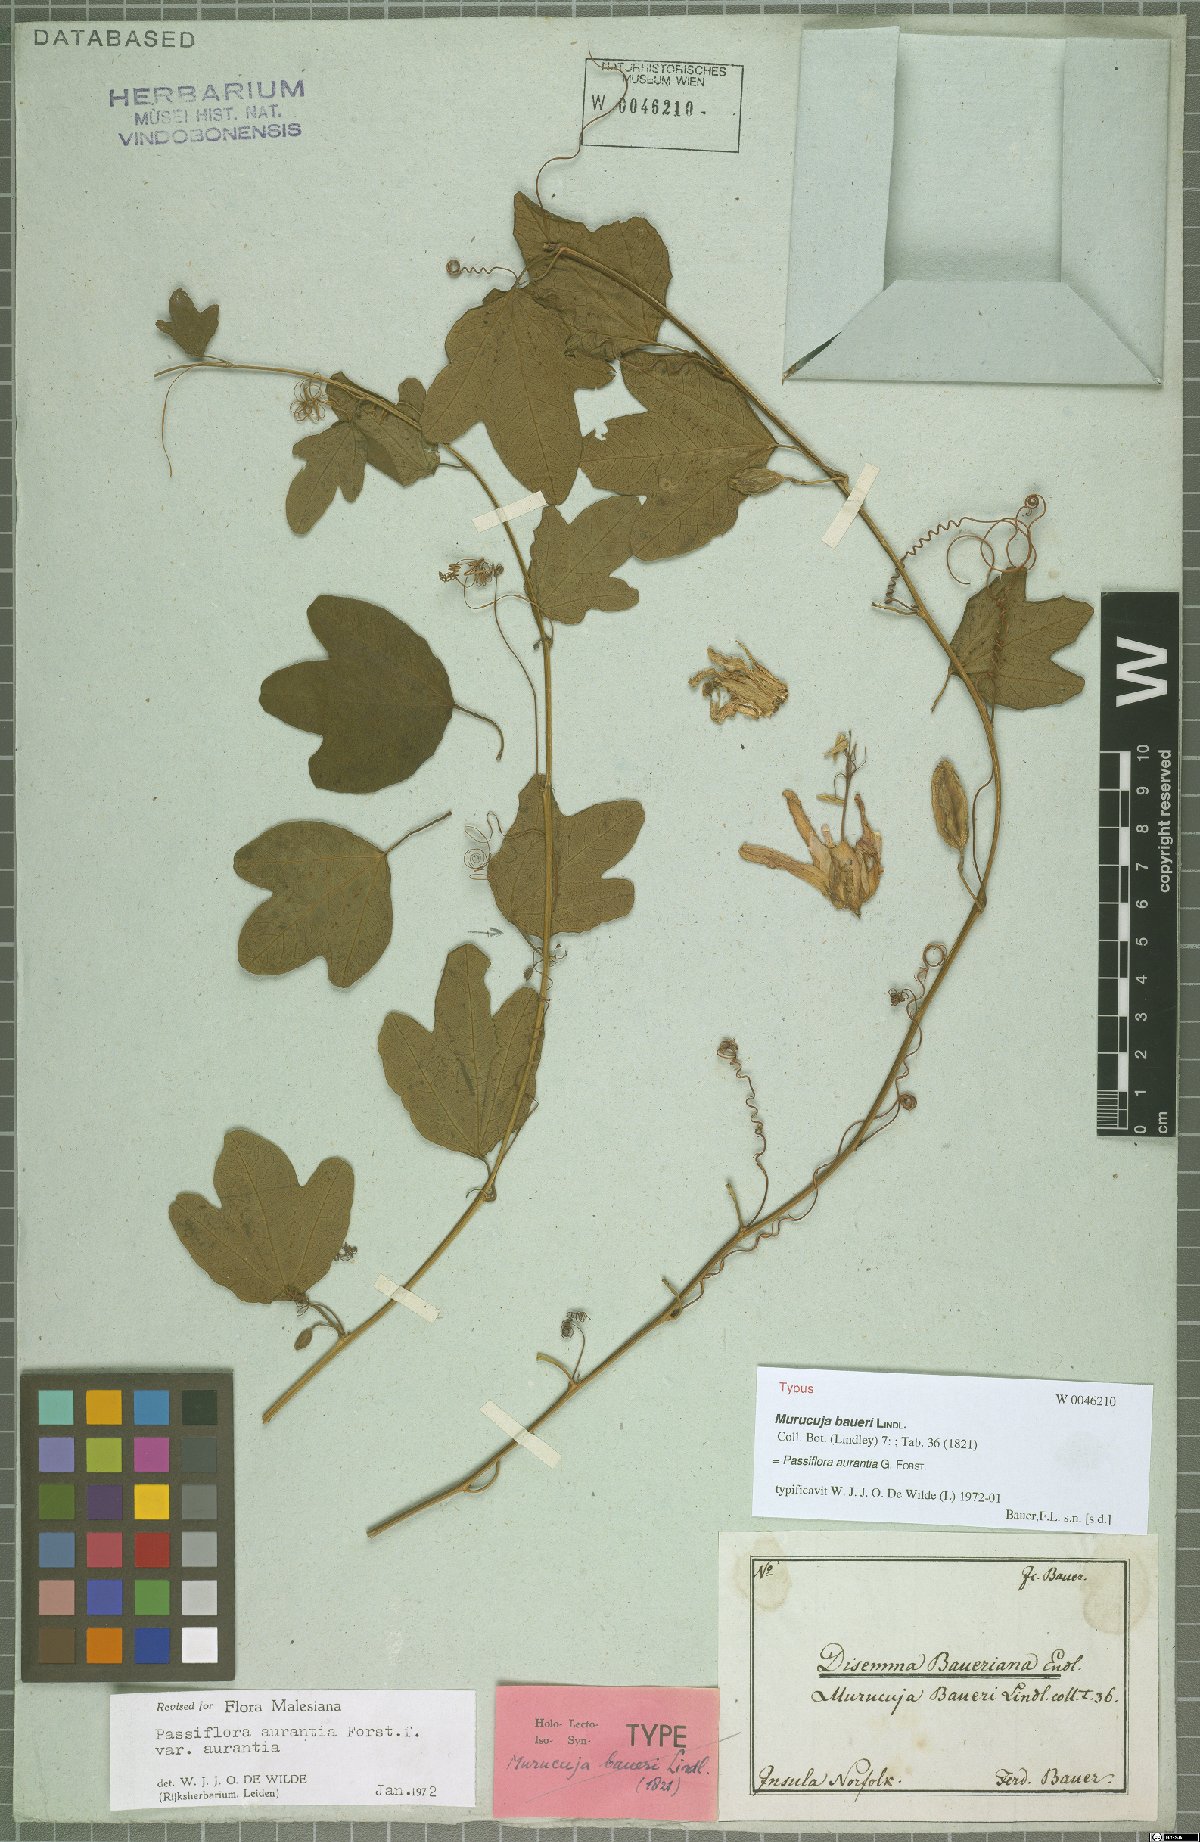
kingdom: Plantae
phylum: Tracheophyta
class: Magnoliopsida
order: Malpighiales
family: Passifloraceae
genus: Passiflora
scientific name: Passiflora aurantia
